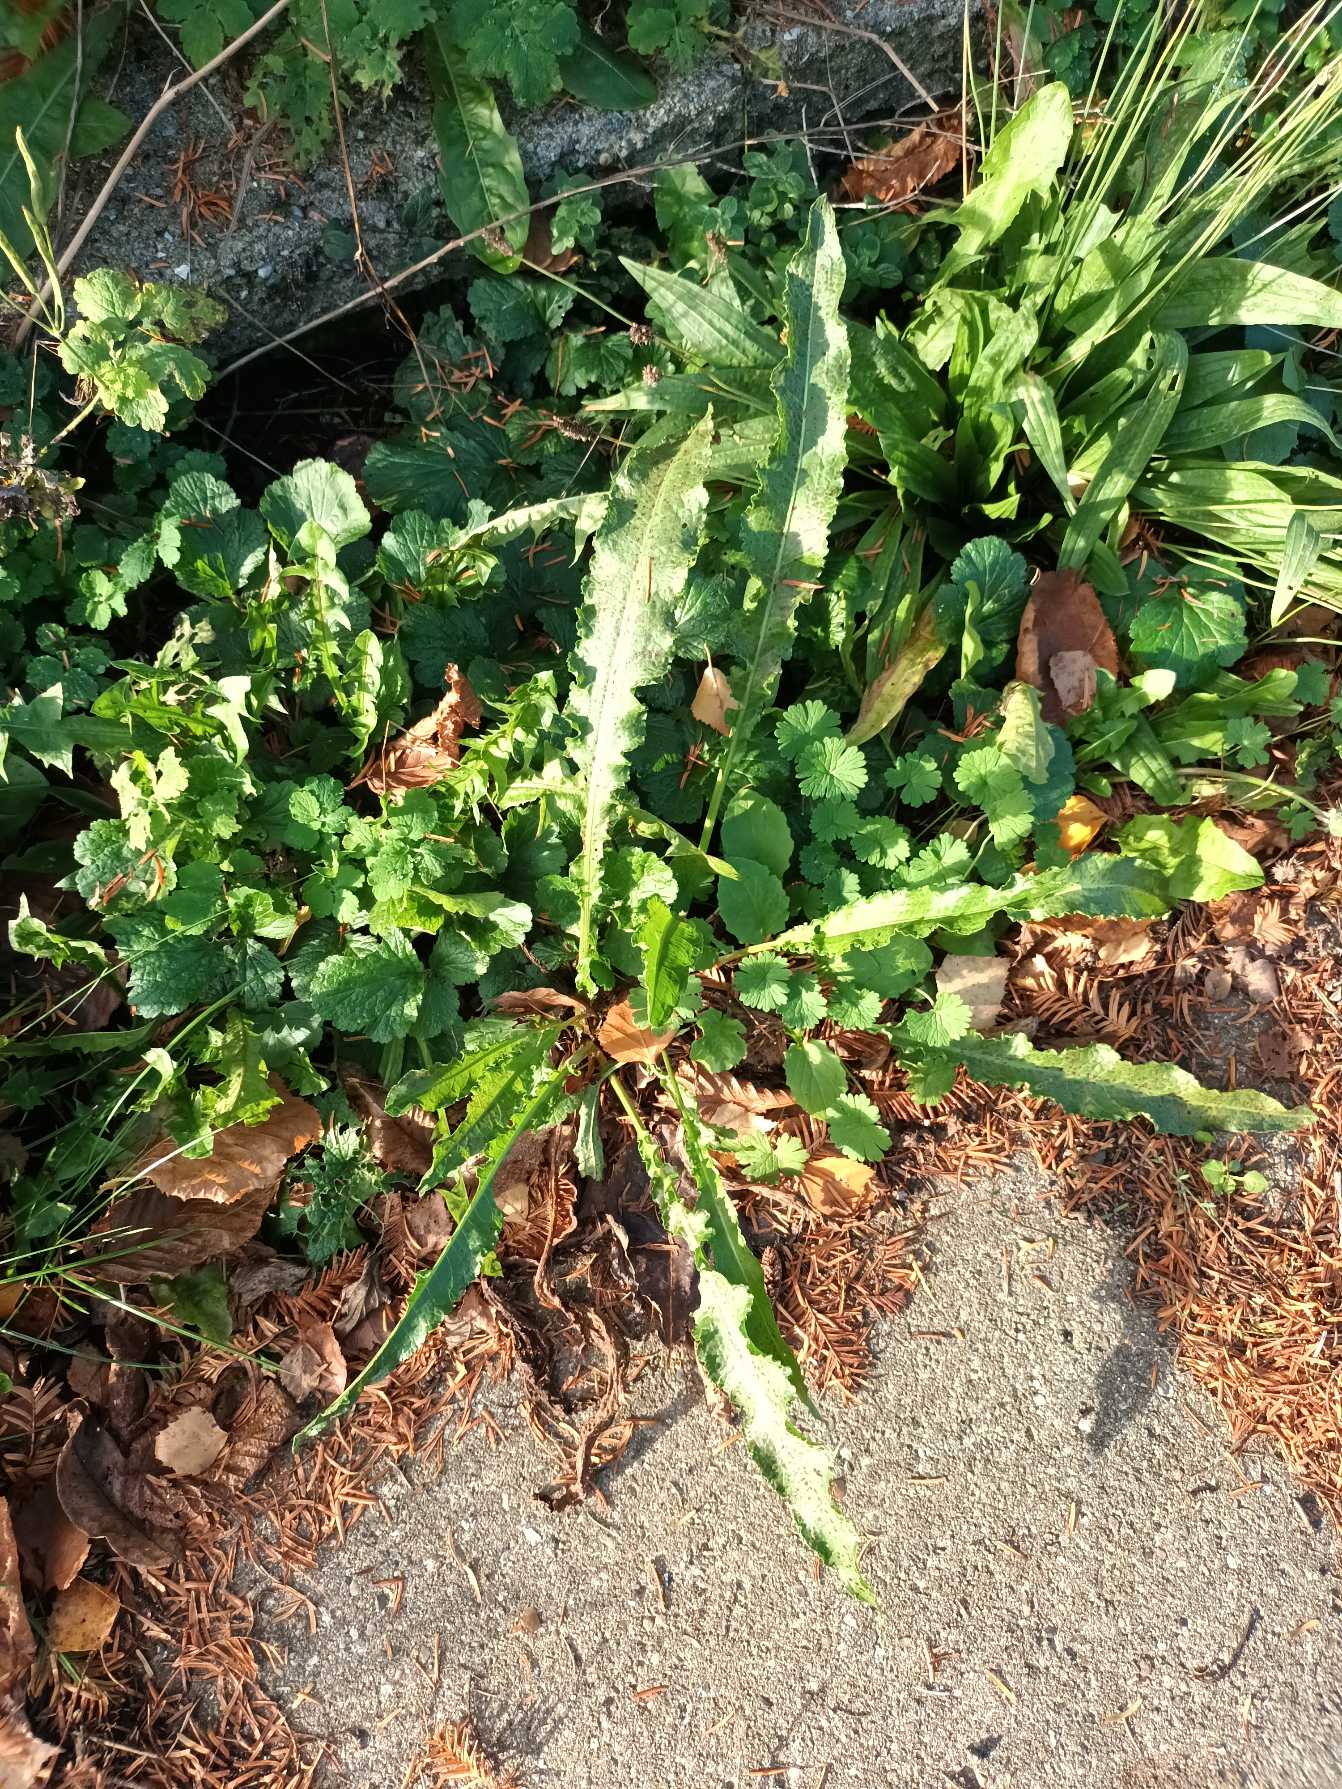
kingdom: Plantae
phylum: Tracheophyta
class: Magnoliopsida
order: Caryophyllales
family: Polygonaceae
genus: Rumex
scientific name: Rumex crispus
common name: Kruset skræppe
